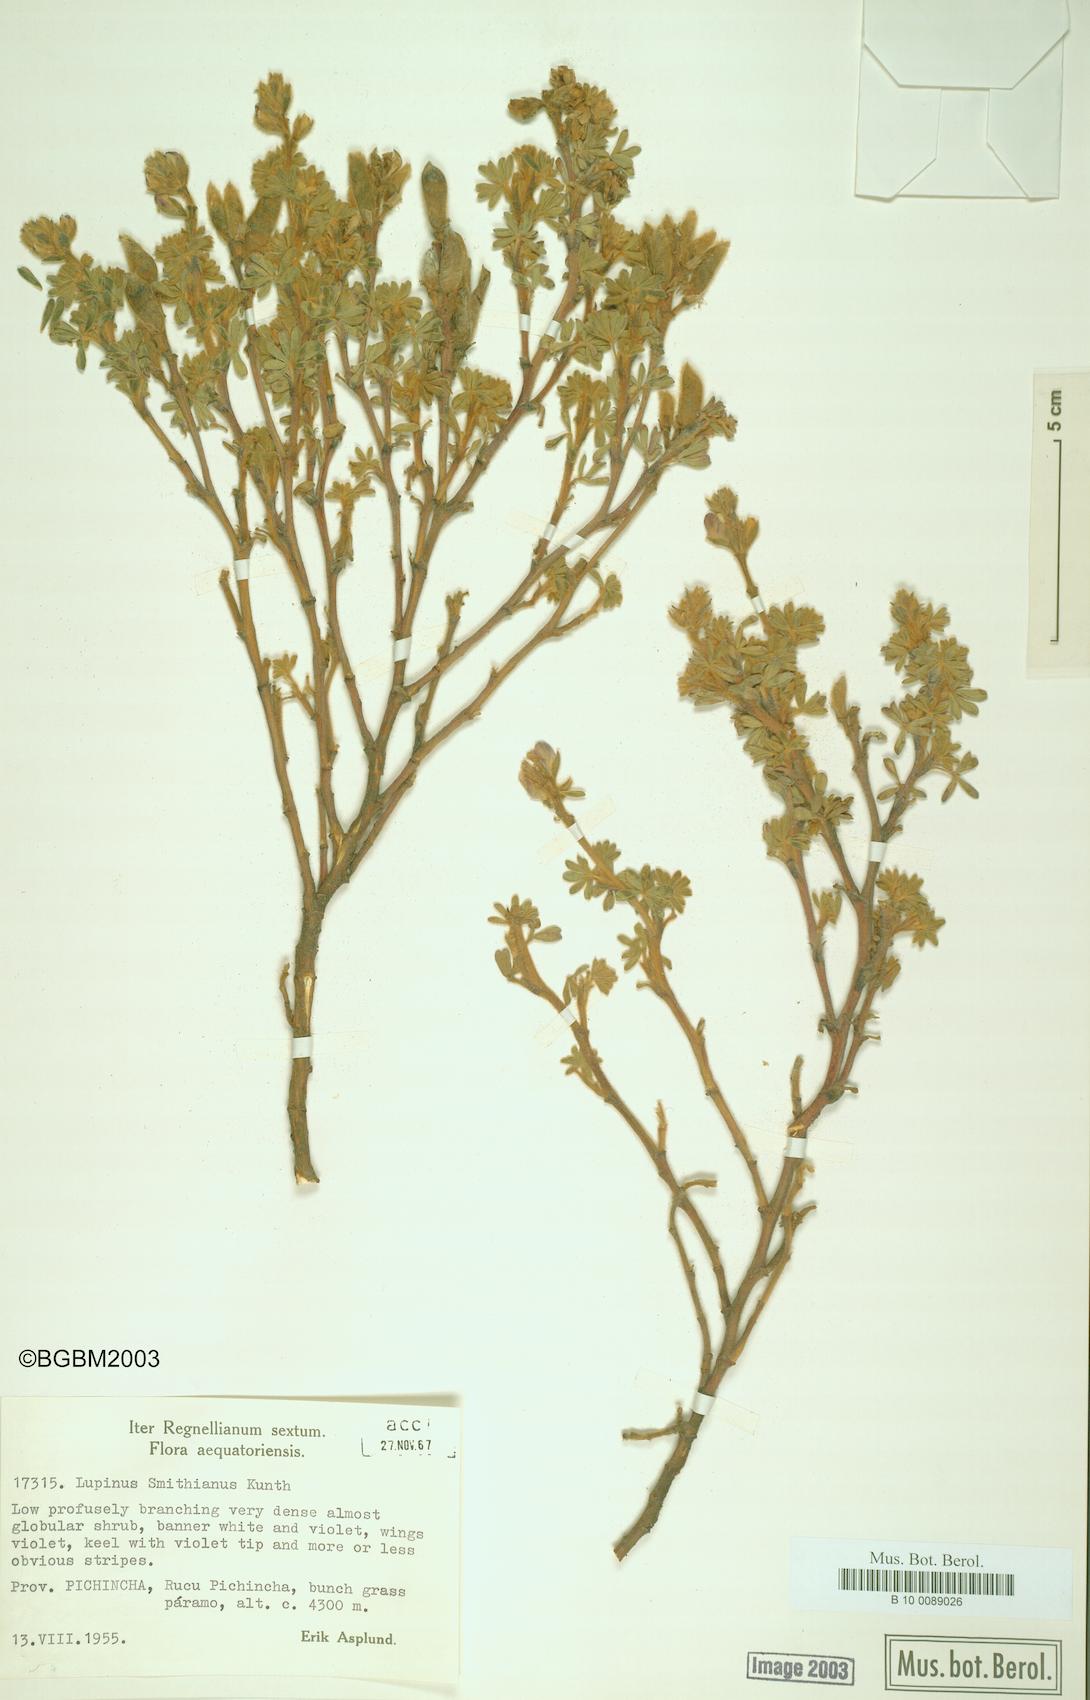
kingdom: Plantae
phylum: Tracheophyta
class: Magnoliopsida
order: Fabales
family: Fabaceae
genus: Lupinus
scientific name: Lupinus smithianus
